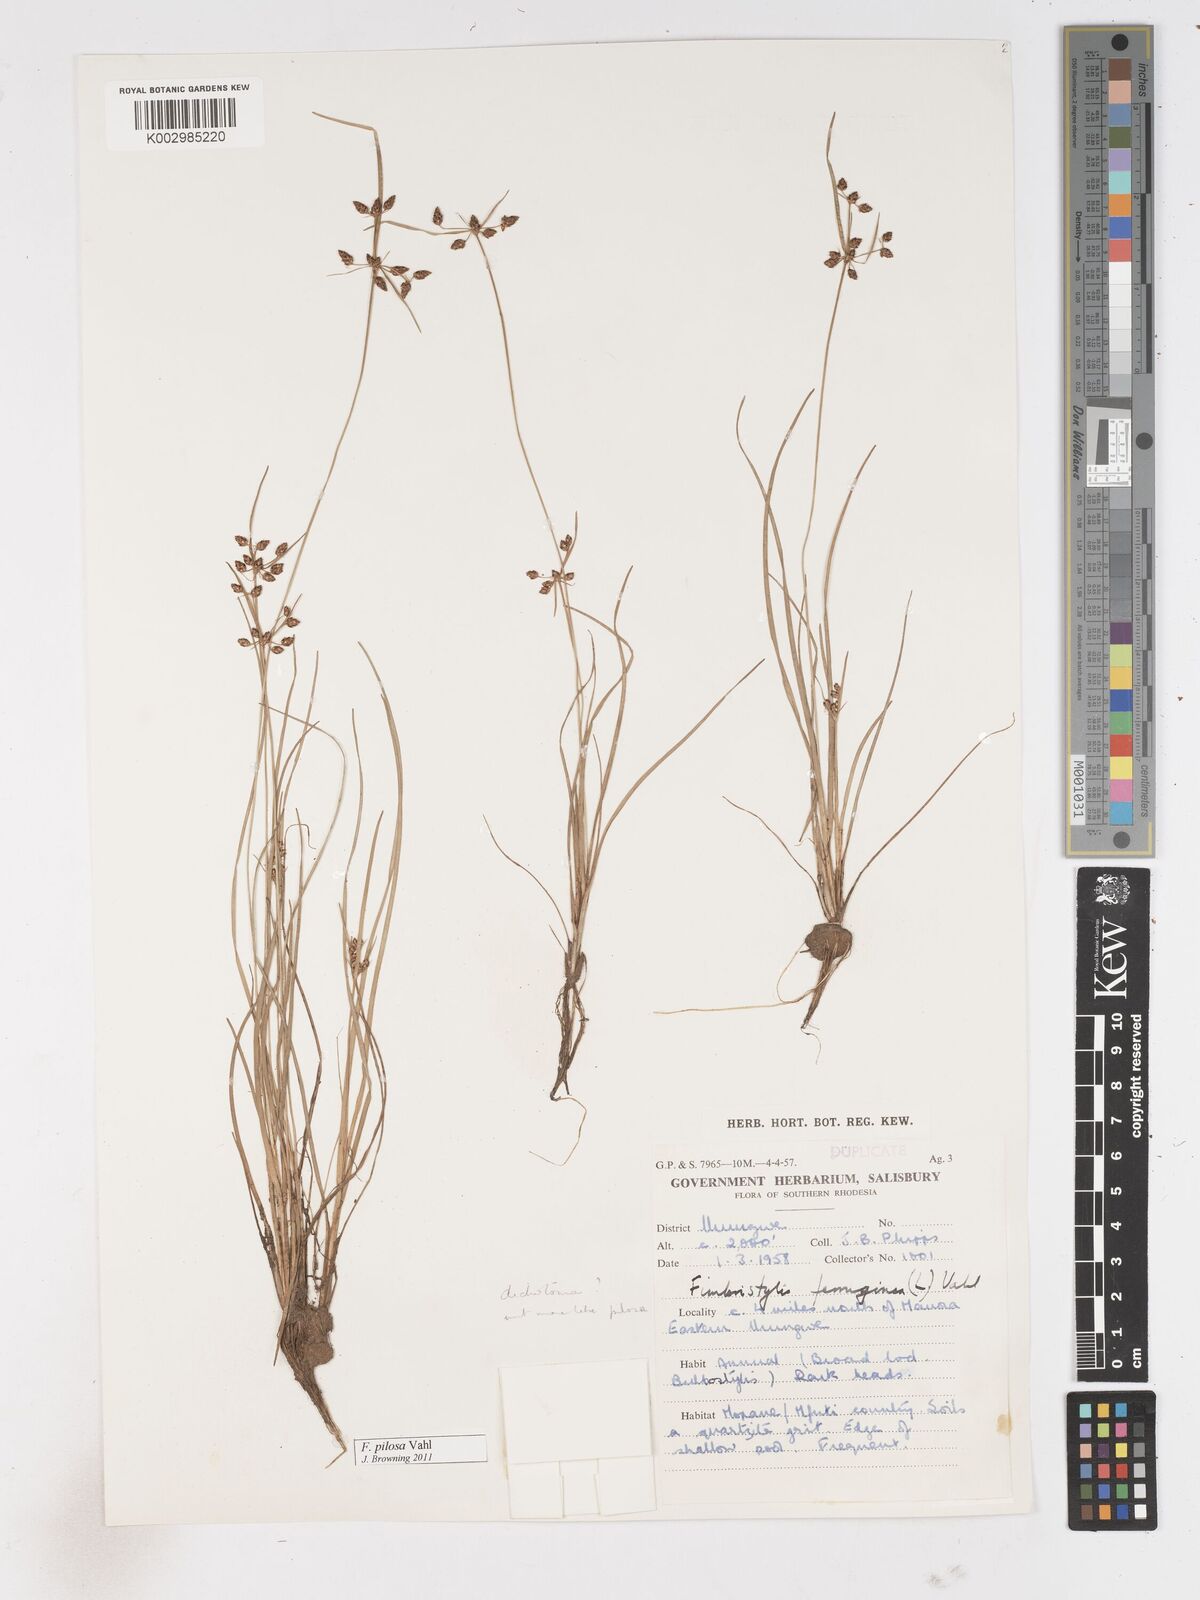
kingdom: Plantae
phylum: Tracheophyta
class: Liliopsida
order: Poales
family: Cyperaceae
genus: Fimbristylis
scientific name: Fimbristylis pilosa
